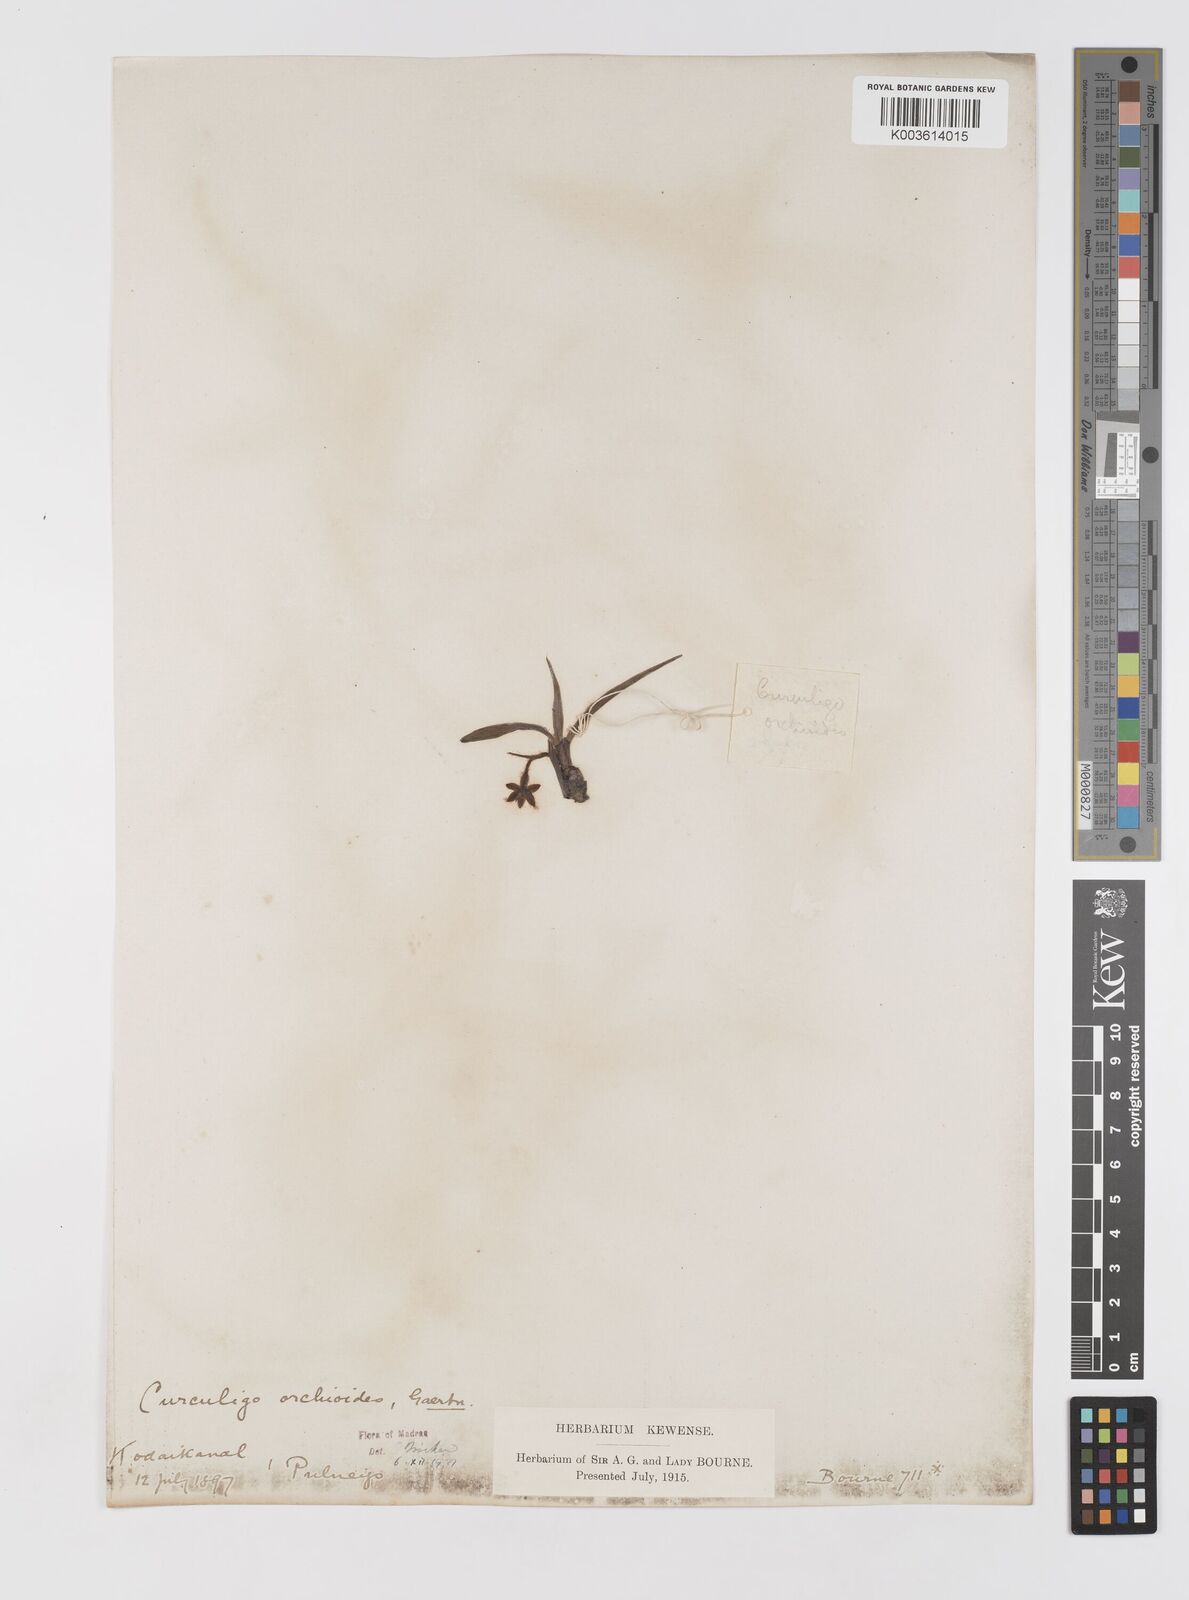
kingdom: Plantae
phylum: Tracheophyta
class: Liliopsida
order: Asparagales
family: Hypoxidaceae
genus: Curculigo
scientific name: Curculigo orchioides
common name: Golden eye-grass
